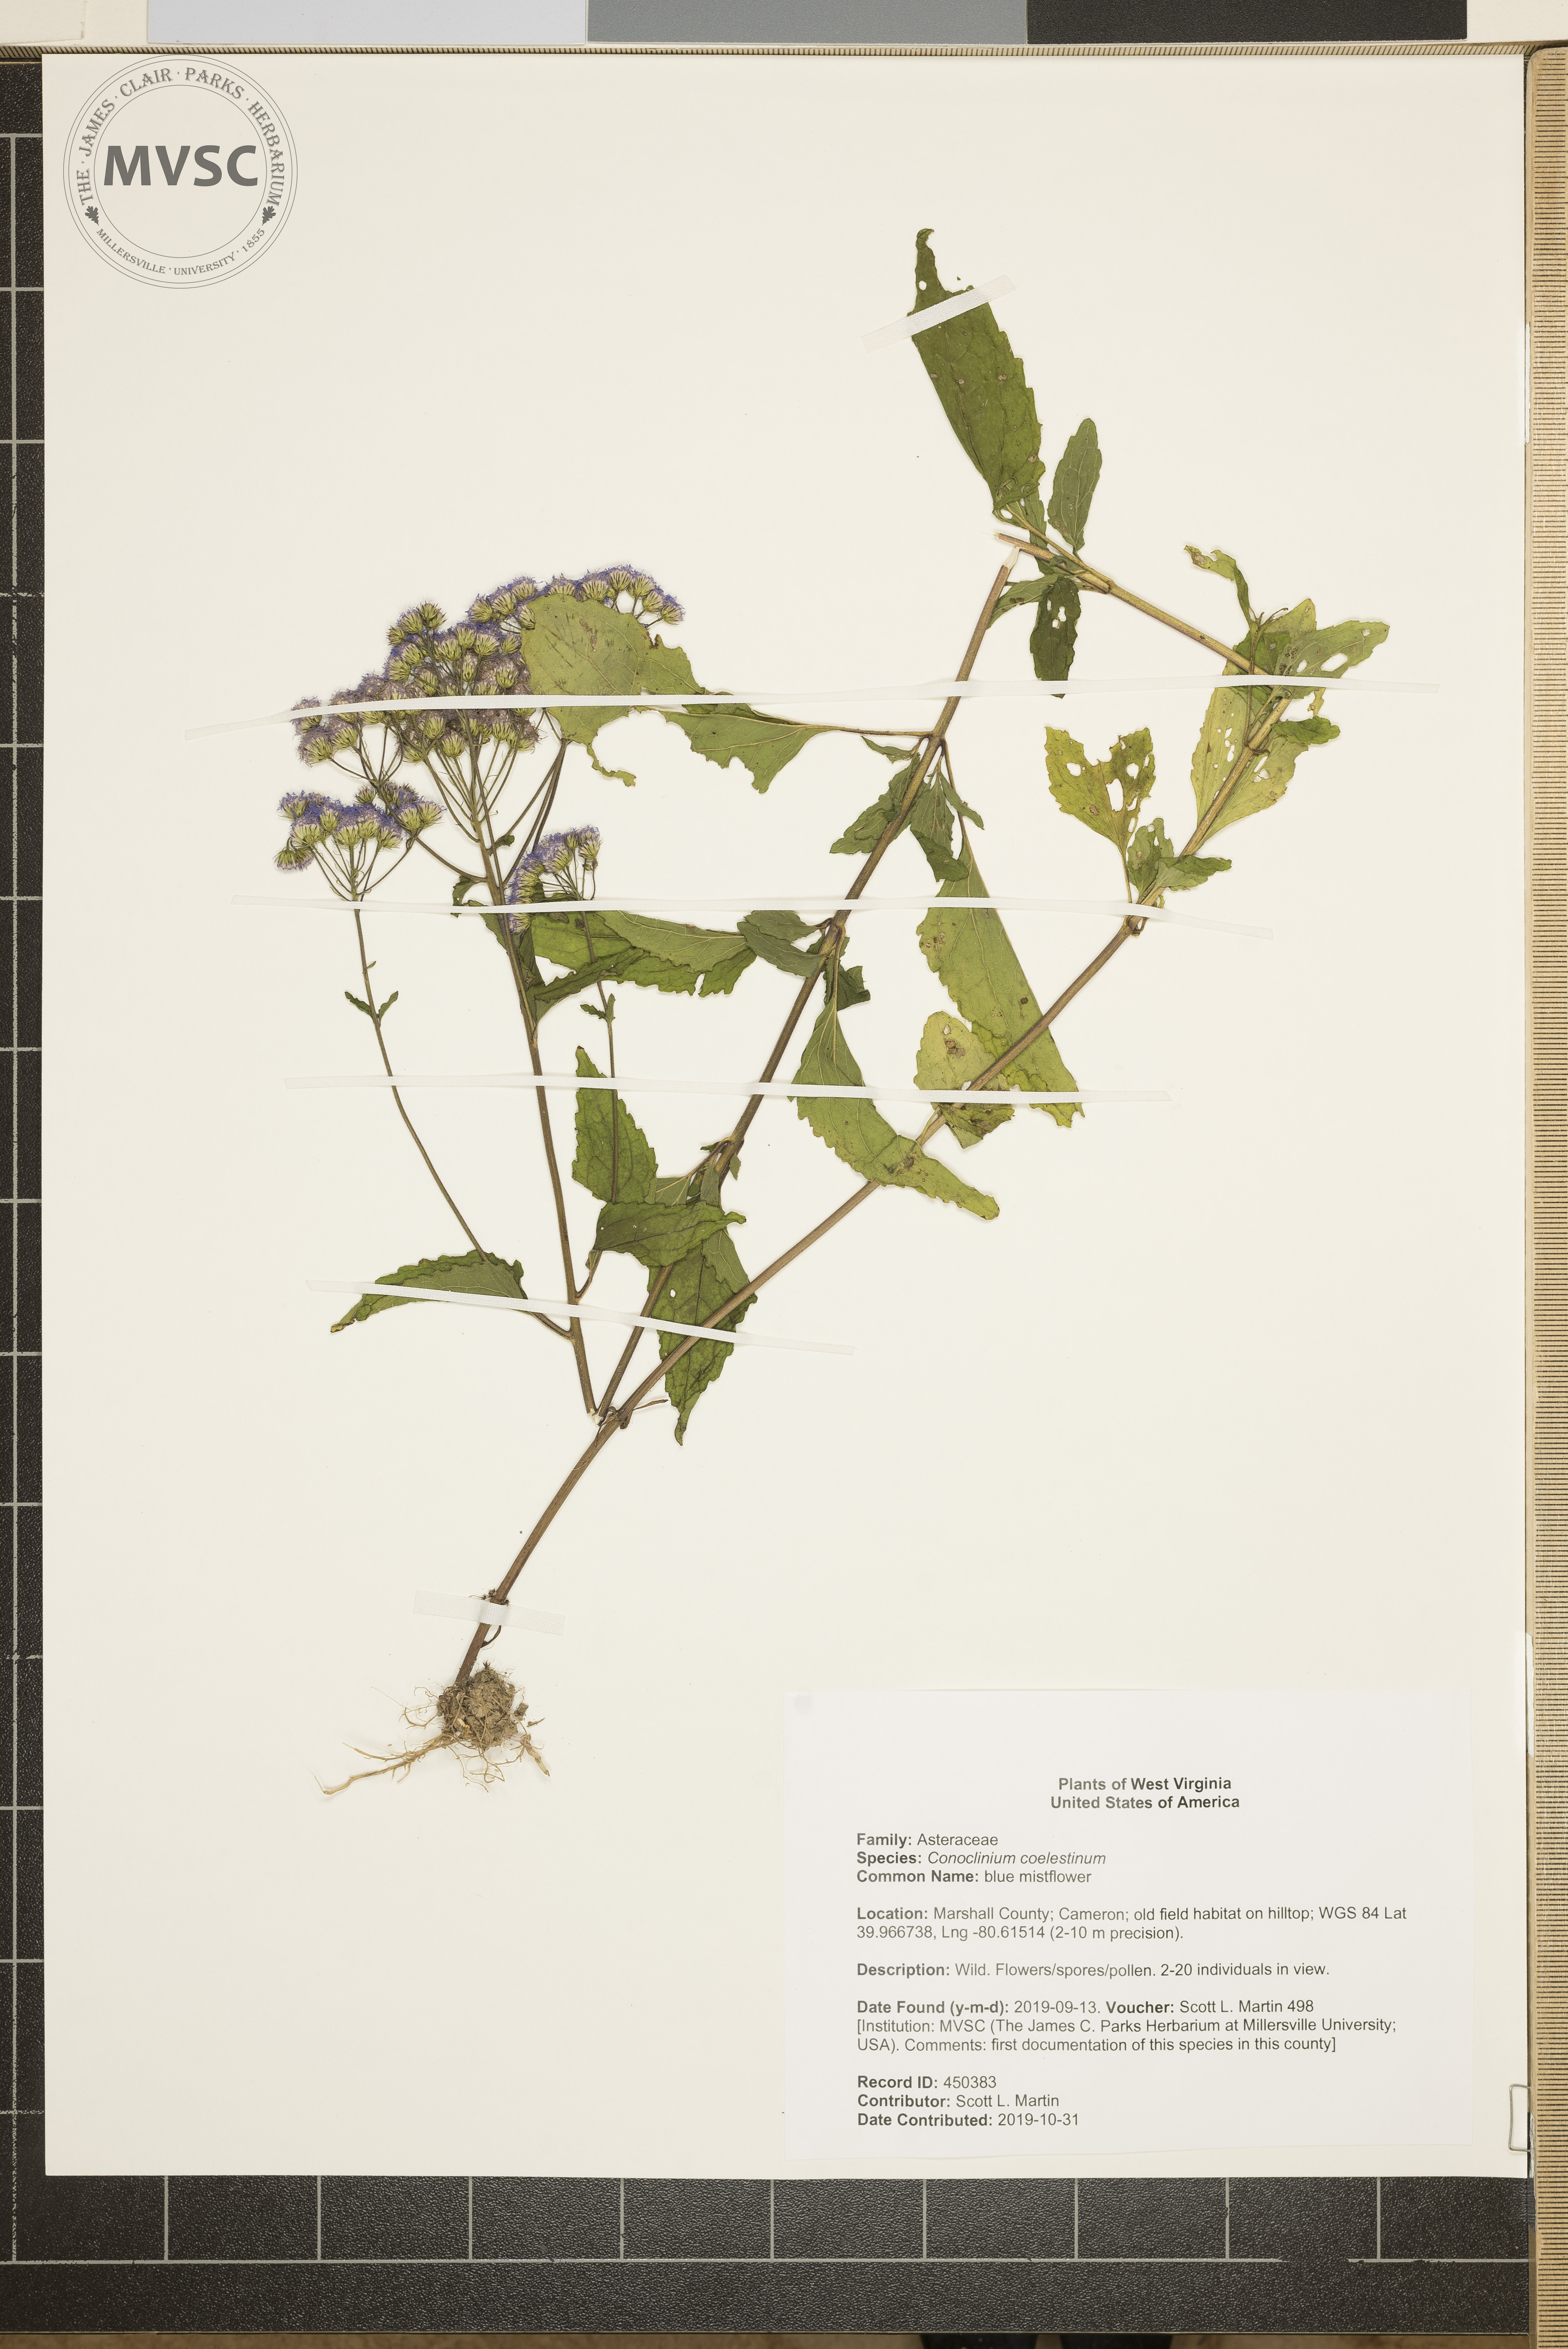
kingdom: Plantae
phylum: Tracheophyta
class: Magnoliopsida
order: Asterales
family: Asteraceae
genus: Conoclinium
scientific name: Conoclinium coelestinum
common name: blue mistflower
